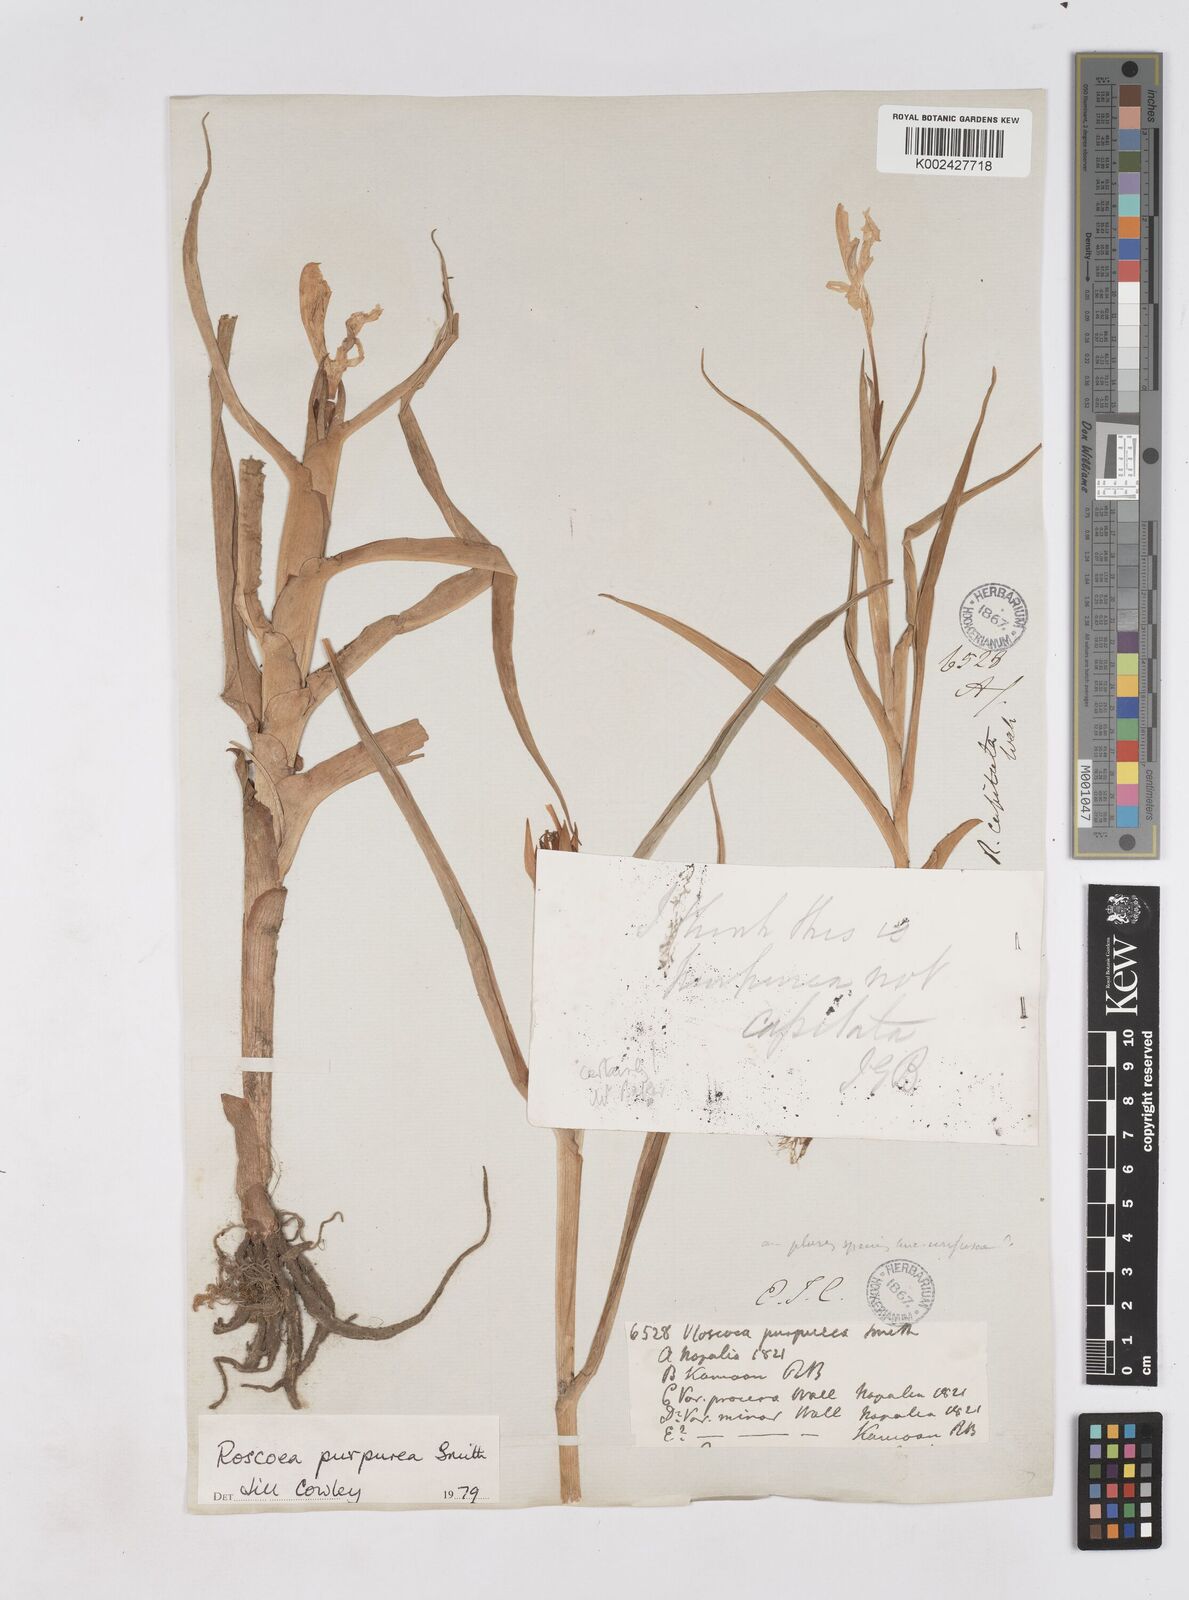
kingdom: Plantae
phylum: Tracheophyta
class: Liliopsida
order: Zingiberales
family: Zingiberaceae
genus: Roscoea
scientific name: Roscoea purpurea
